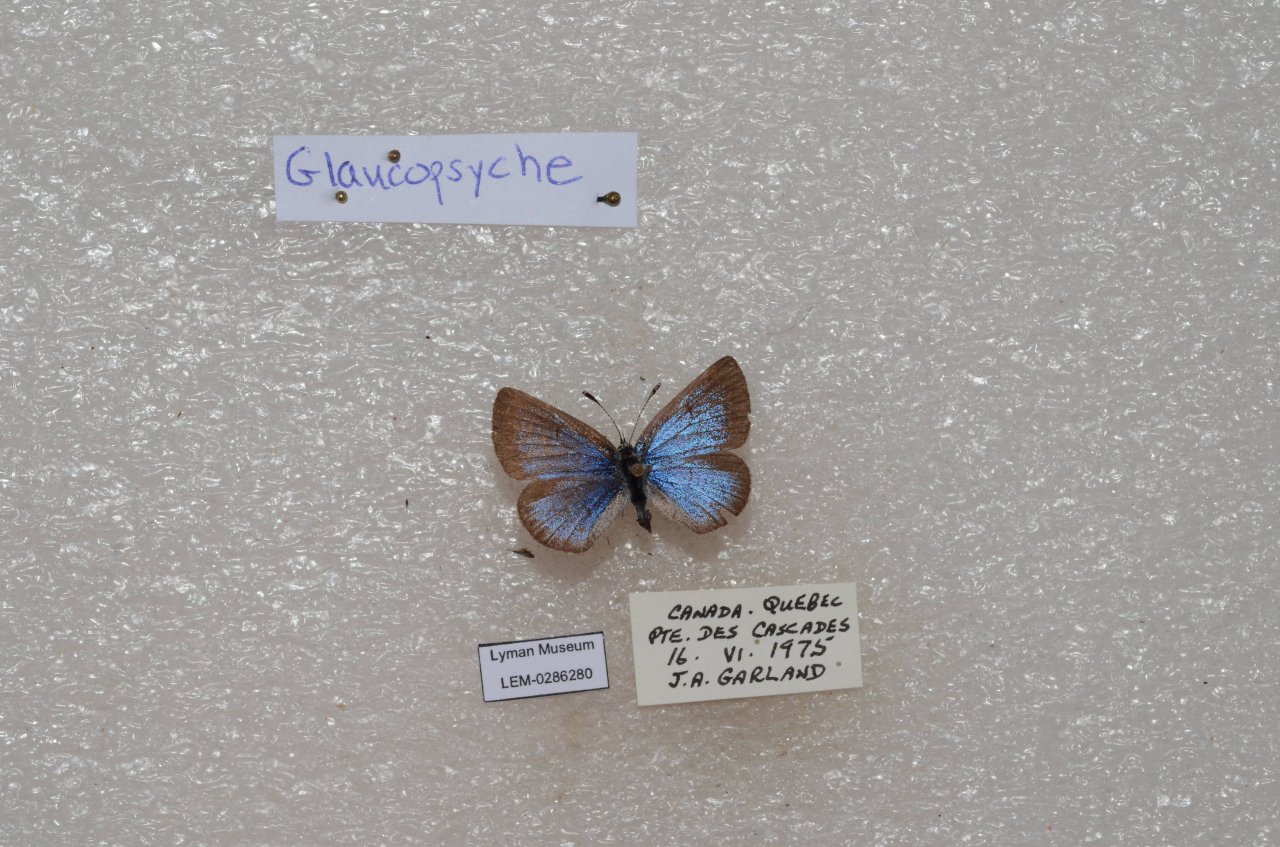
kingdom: Animalia
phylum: Arthropoda
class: Insecta
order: Lepidoptera
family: Lycaenidae
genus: Glaucopsyche
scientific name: Glaucopsyche lygdamus
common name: Silvery Blue
